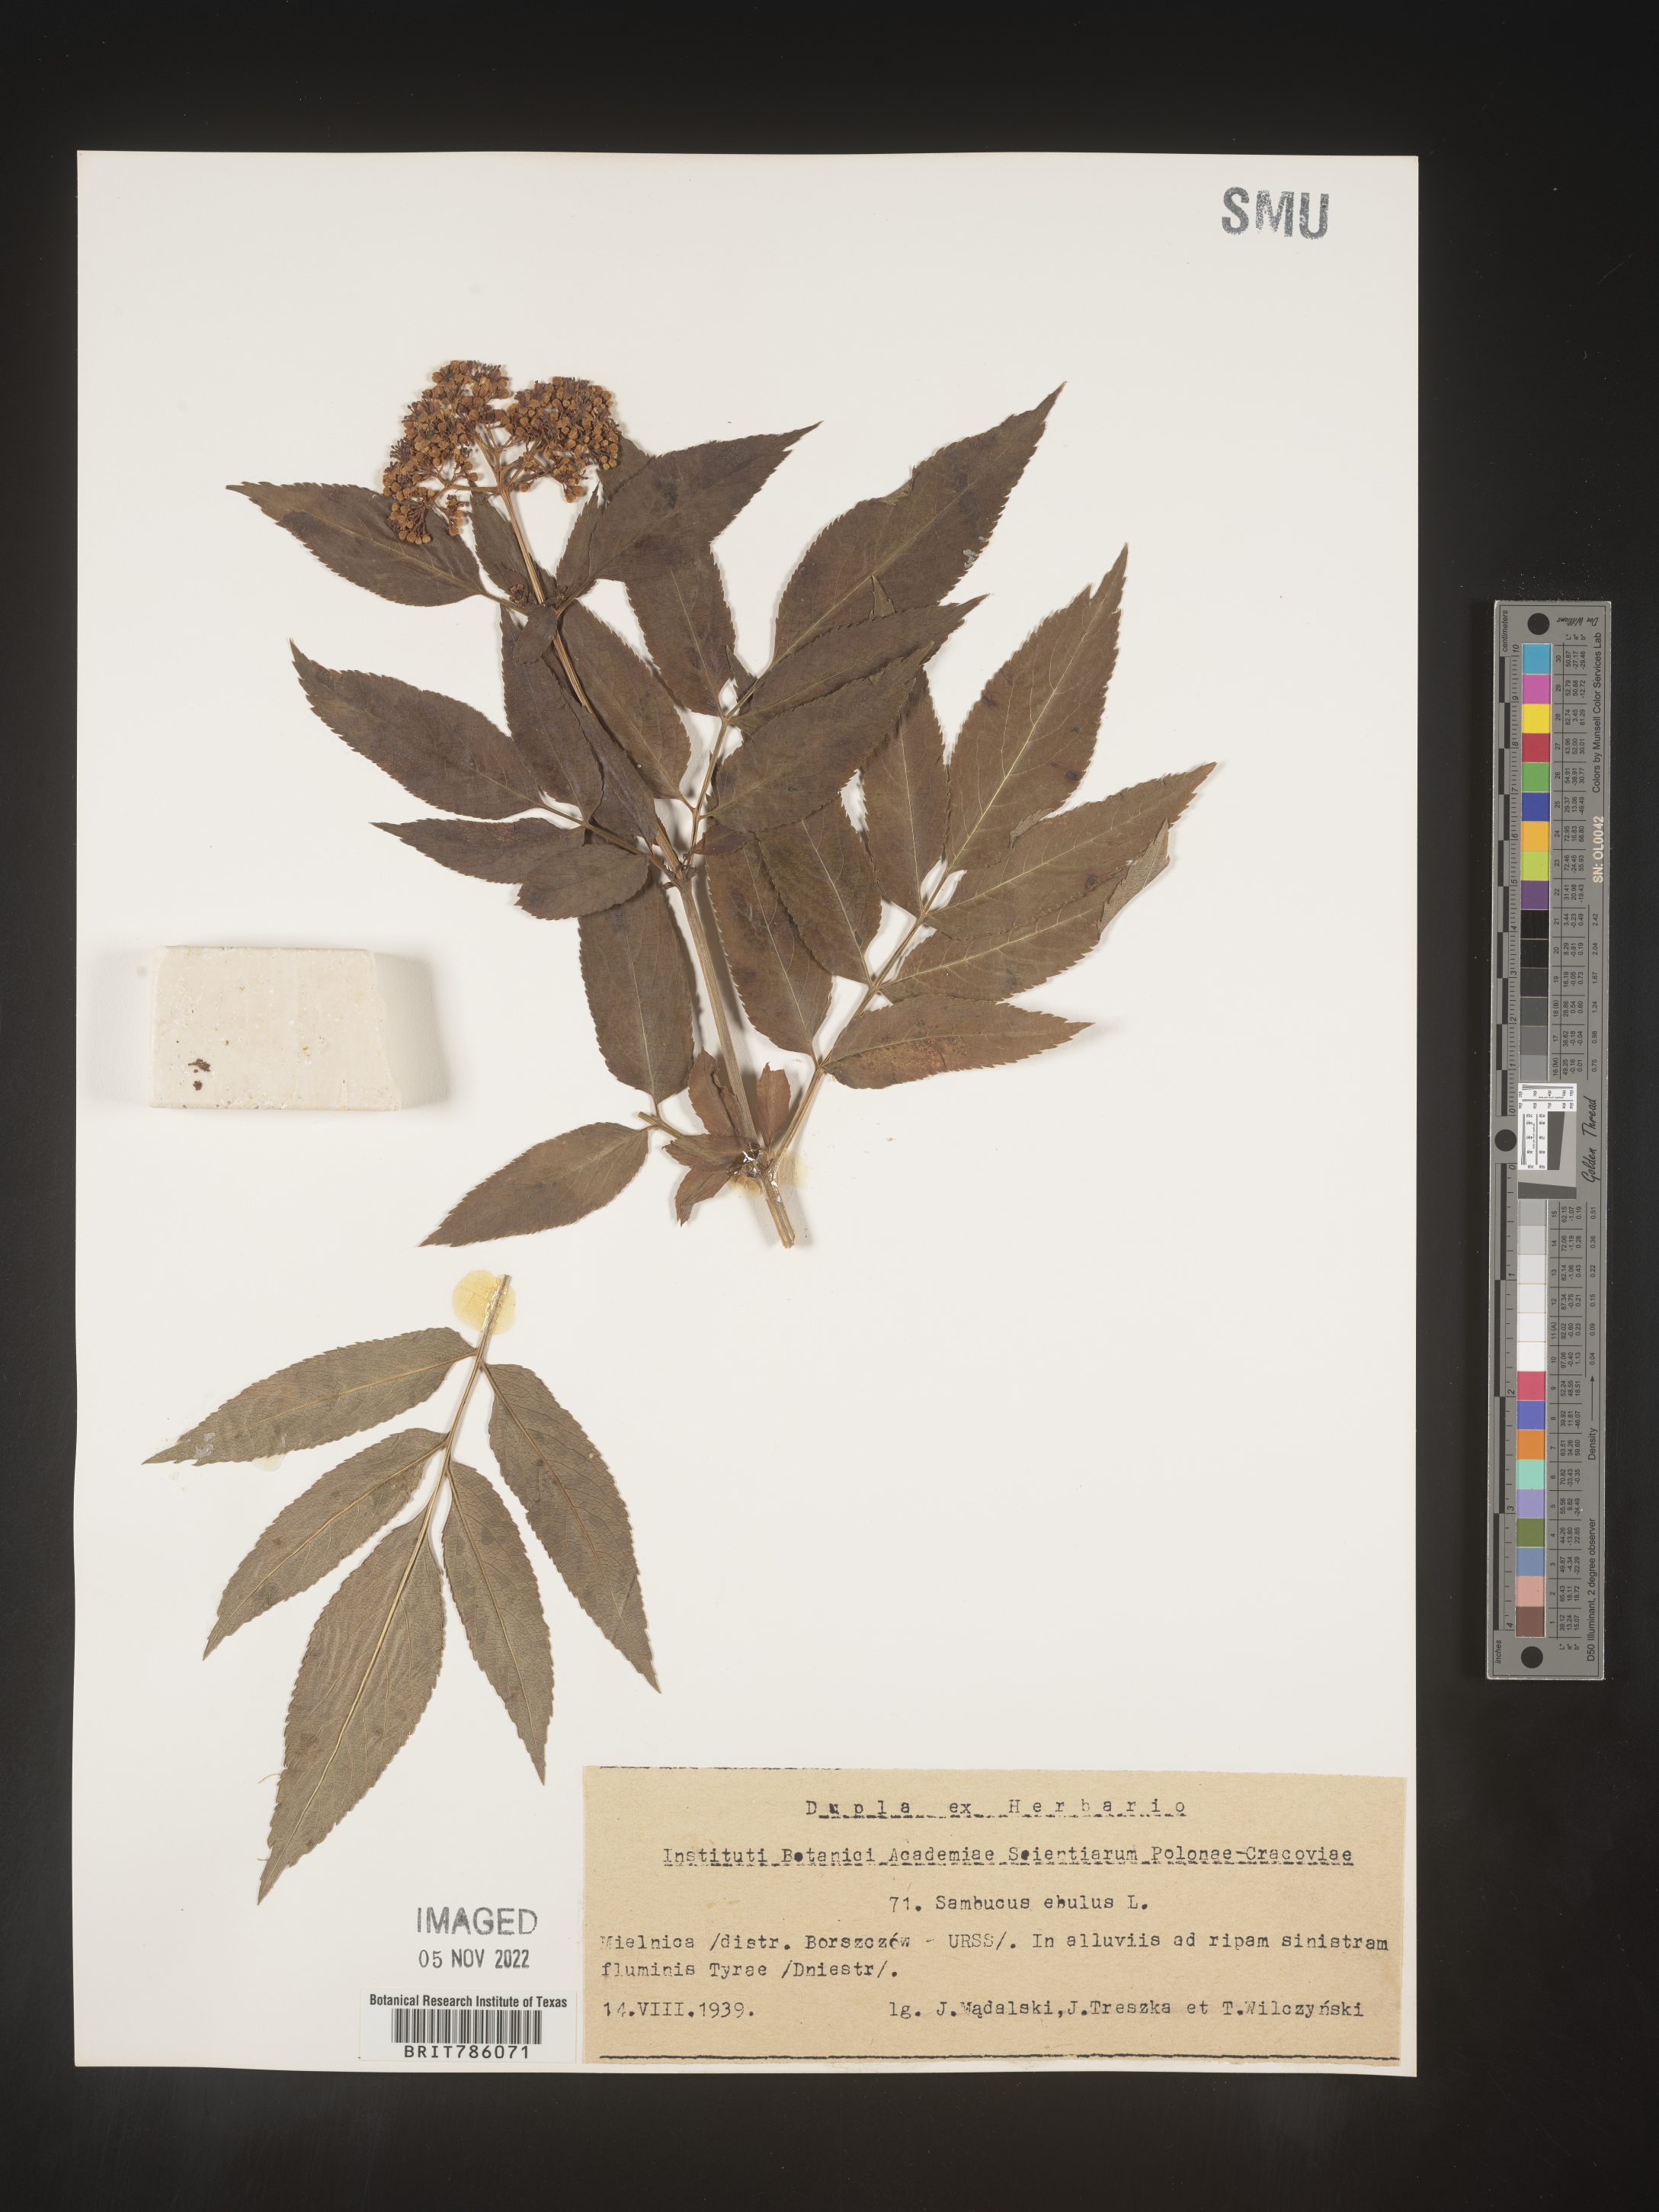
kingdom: Plantae
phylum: Tracheophyta
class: Magnoliopsida
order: Dipsacales
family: Viburnaceae
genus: Sambucus
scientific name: Sambucus
